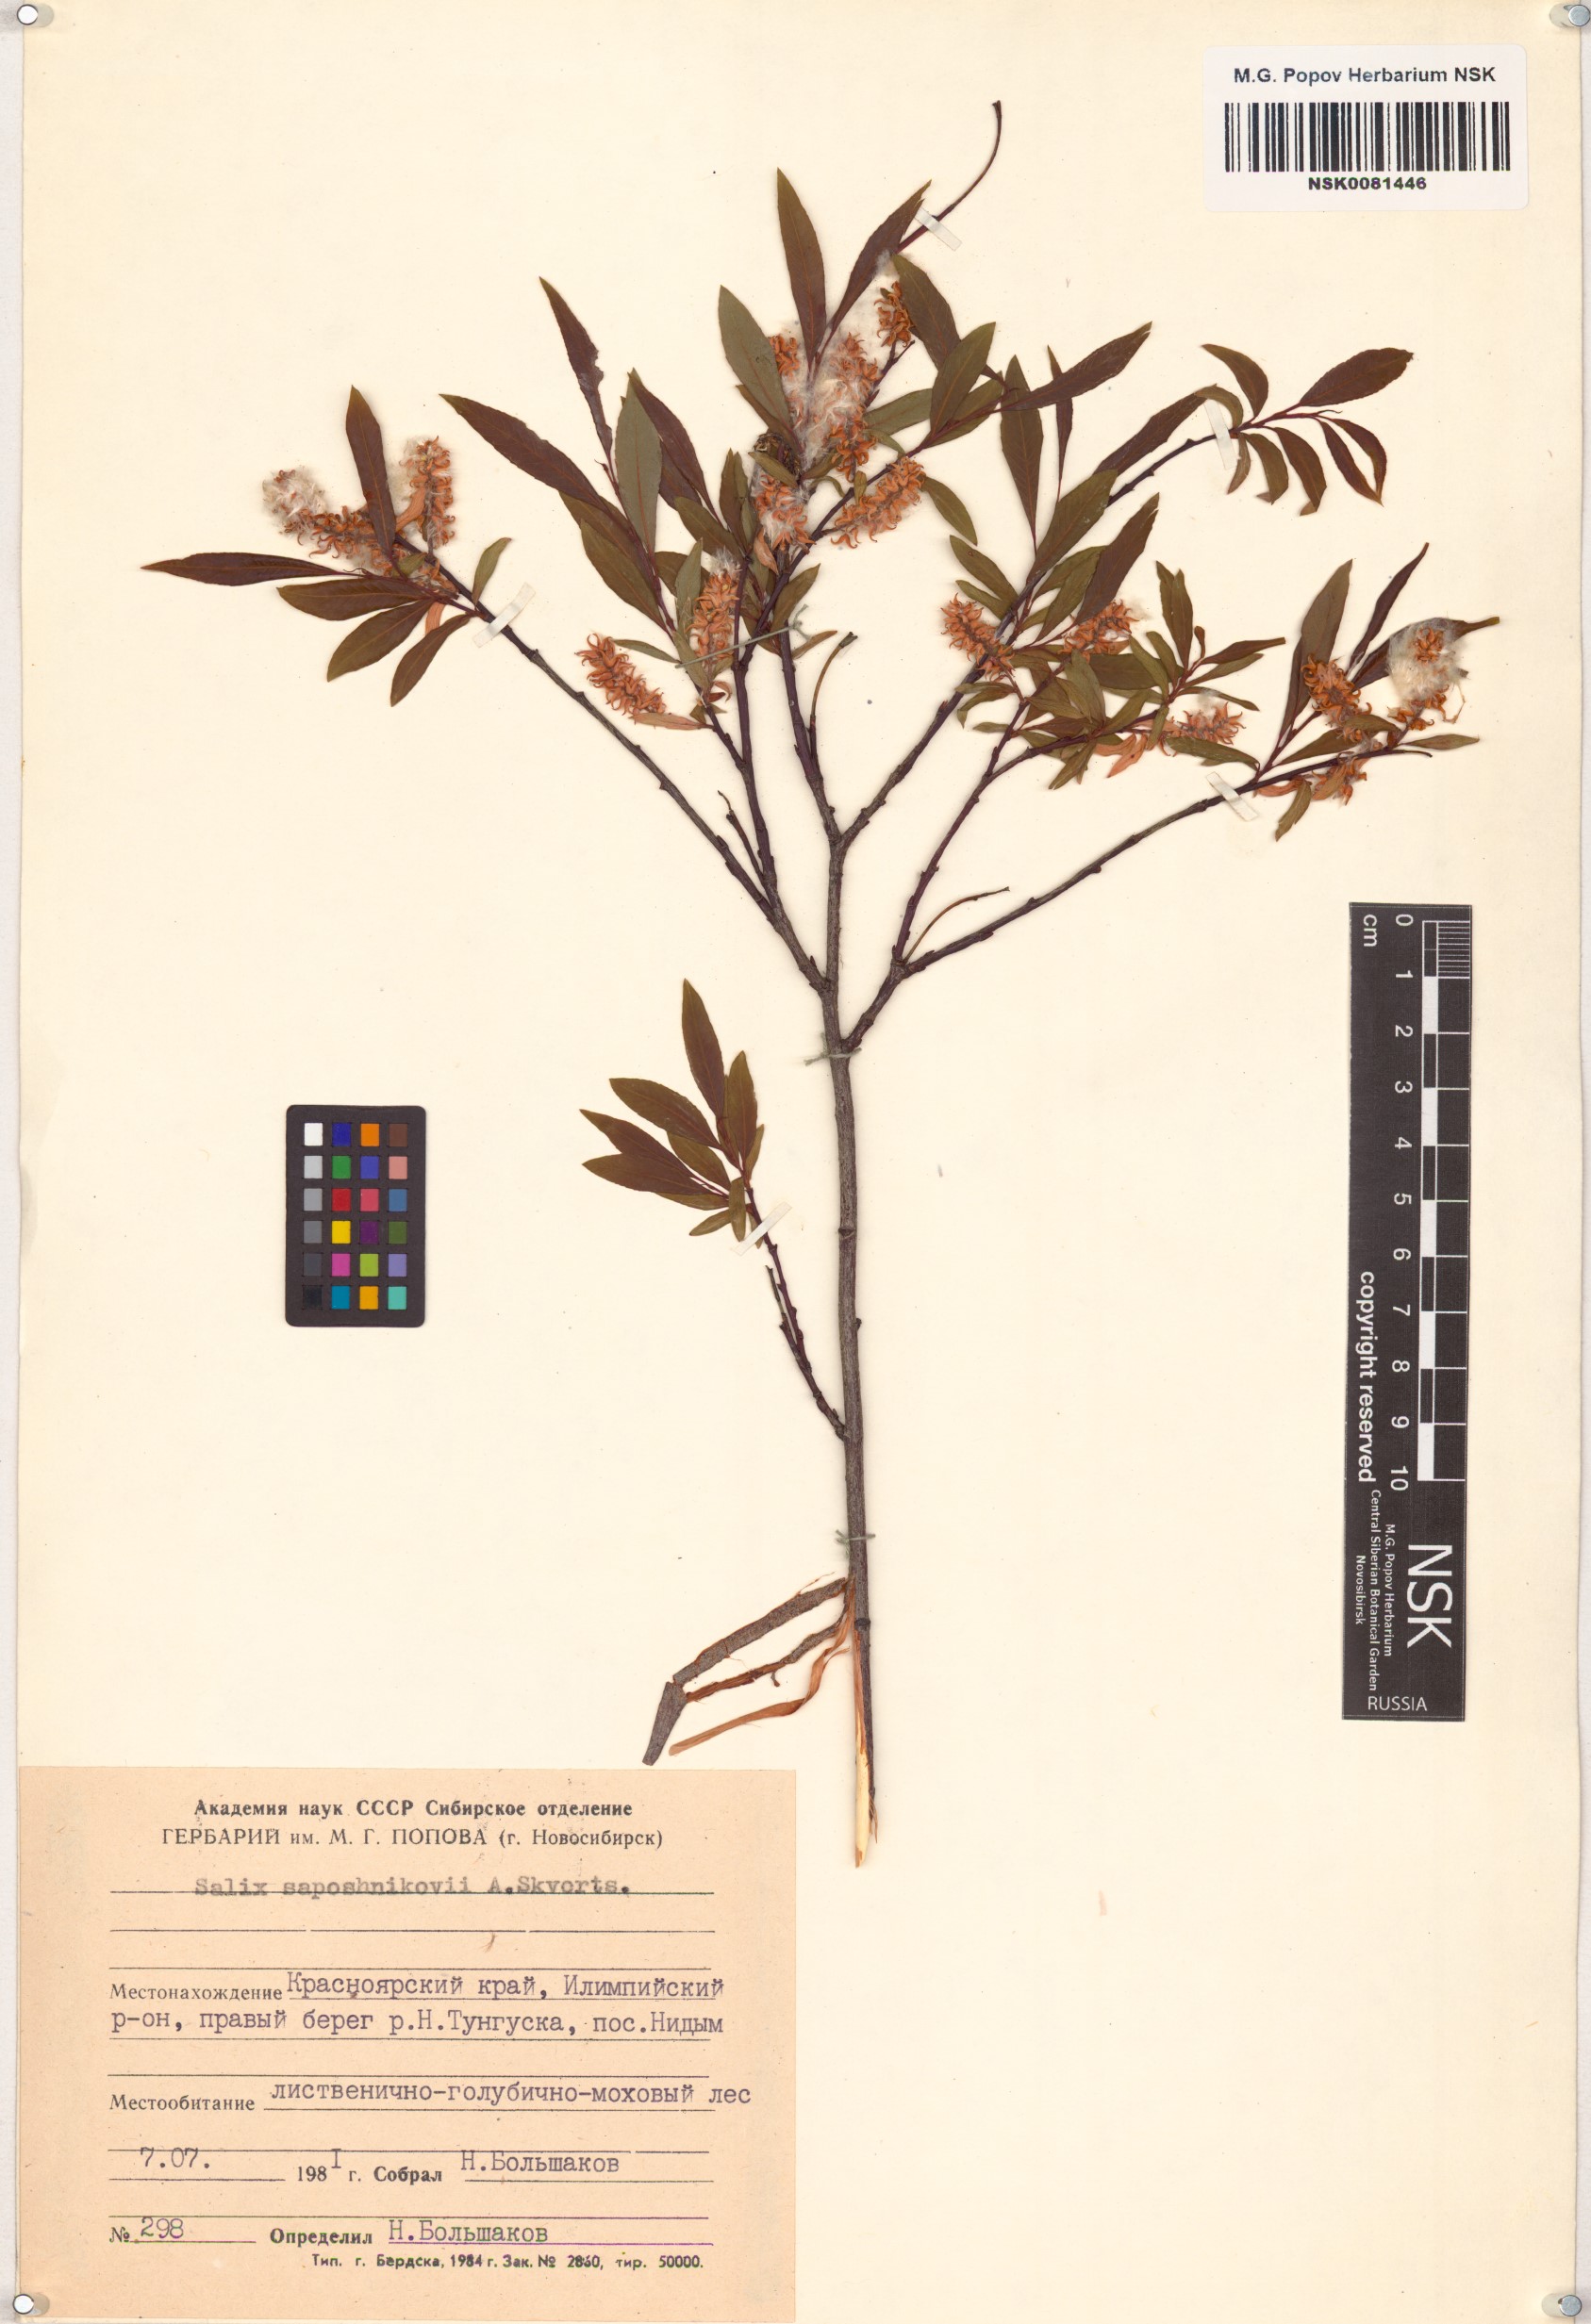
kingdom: Plantae
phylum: Tracheophyta
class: Magnoliopsida
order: Malpighiales
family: Salicaceae
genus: Salix
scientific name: Salix saposhnikovii
